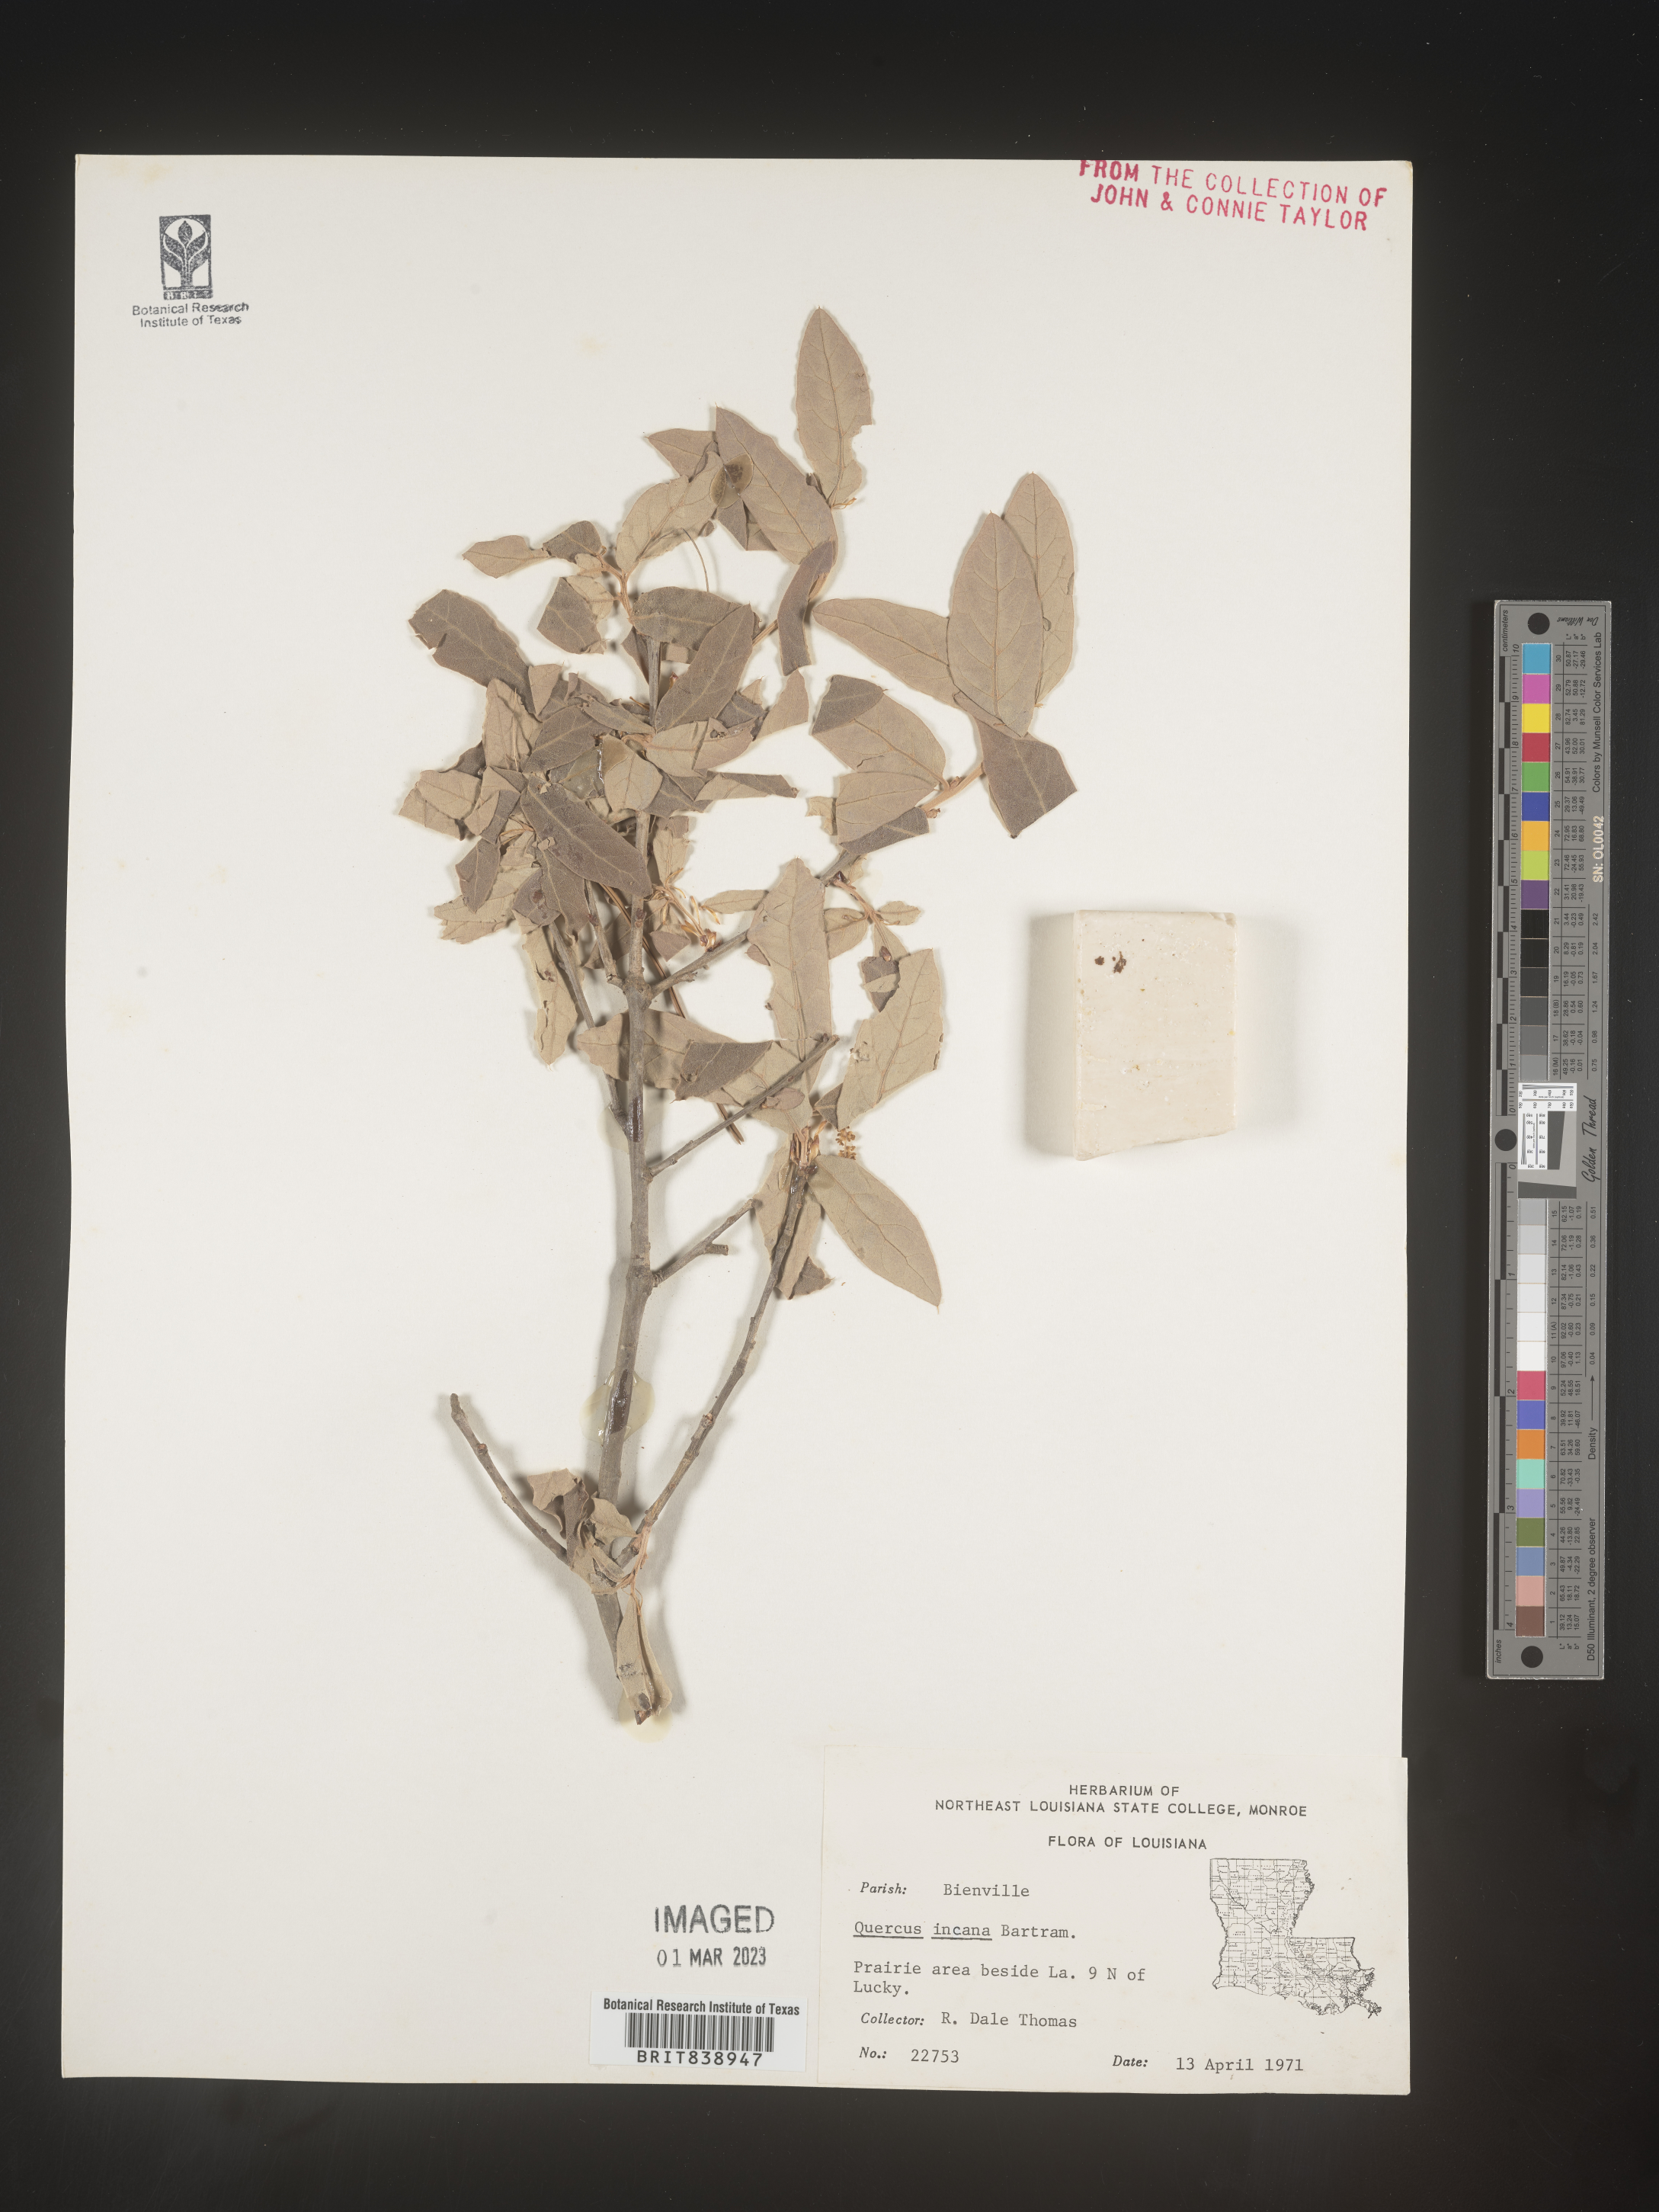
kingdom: Plantae
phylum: Tracheophyta
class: Magnoliopsida
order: Fagales
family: Fagaceae
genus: Quercus
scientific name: Quercus incana
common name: Bluejack oak
